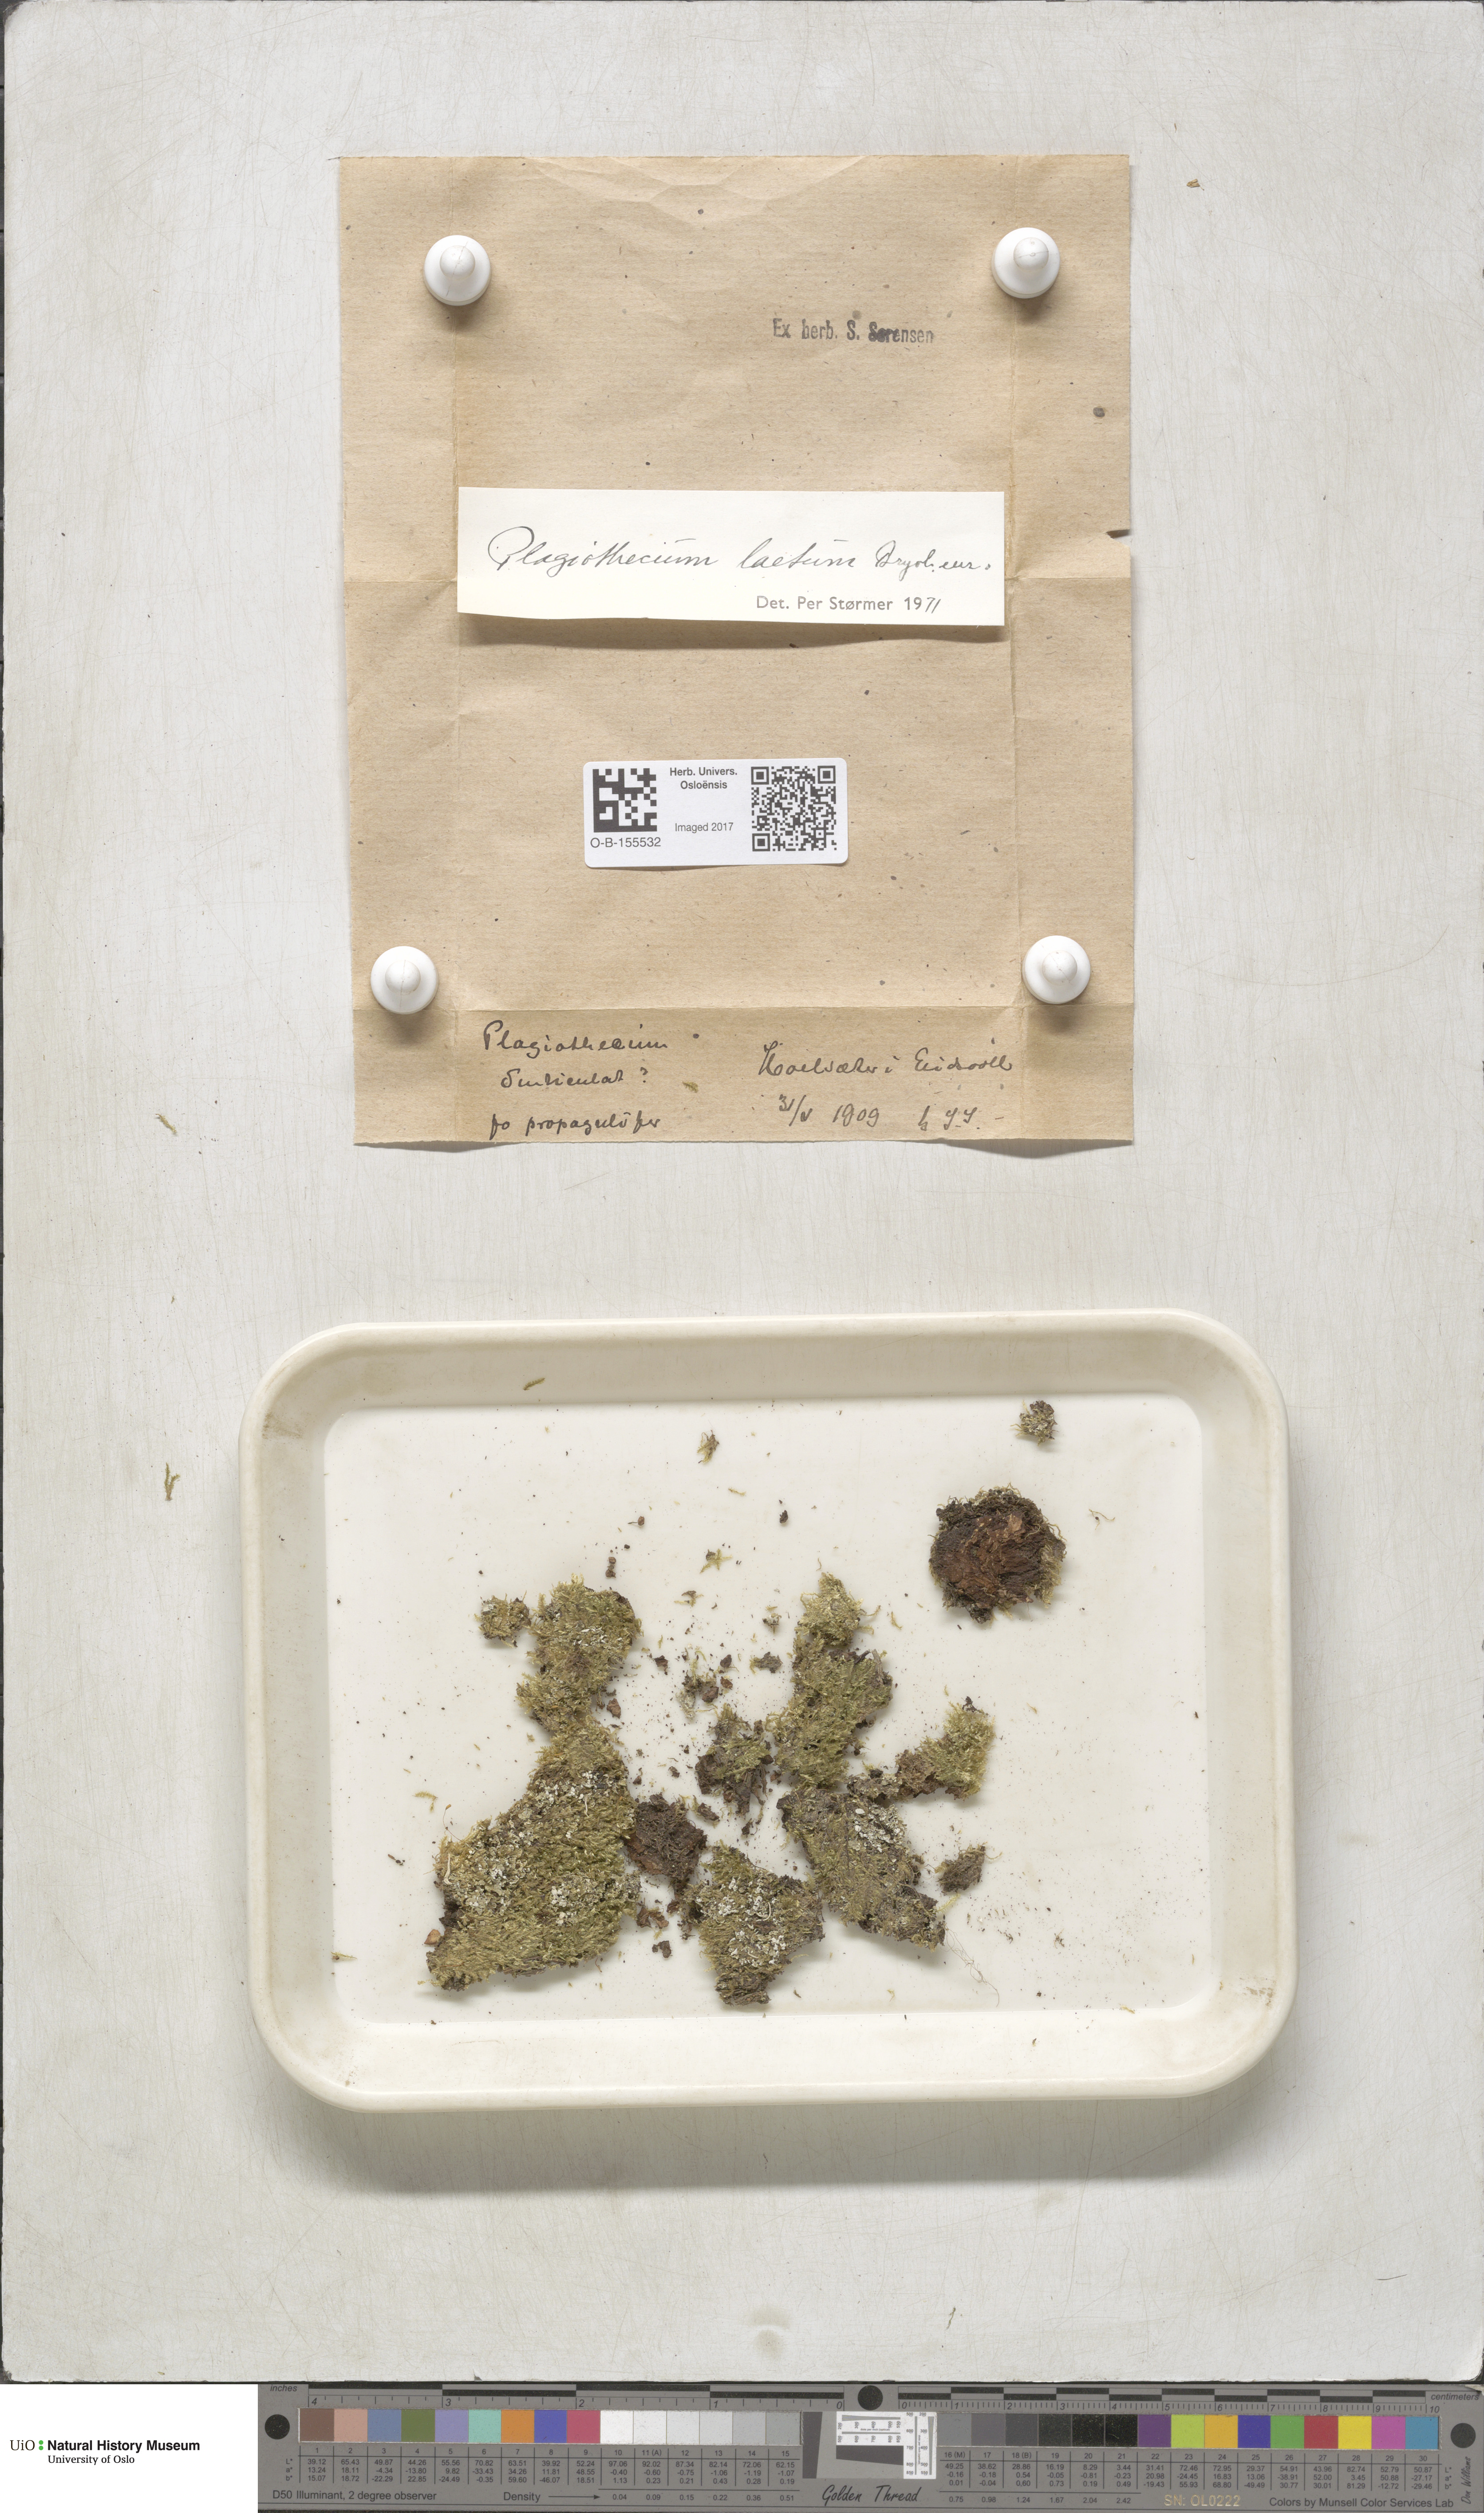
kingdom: Plantae
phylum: Bryophyta
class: Bryopsida
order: Hypnales
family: Plagiotheciaceae
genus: Plagiothecium
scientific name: Plagiothecium laetum
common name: Bright silk moss
